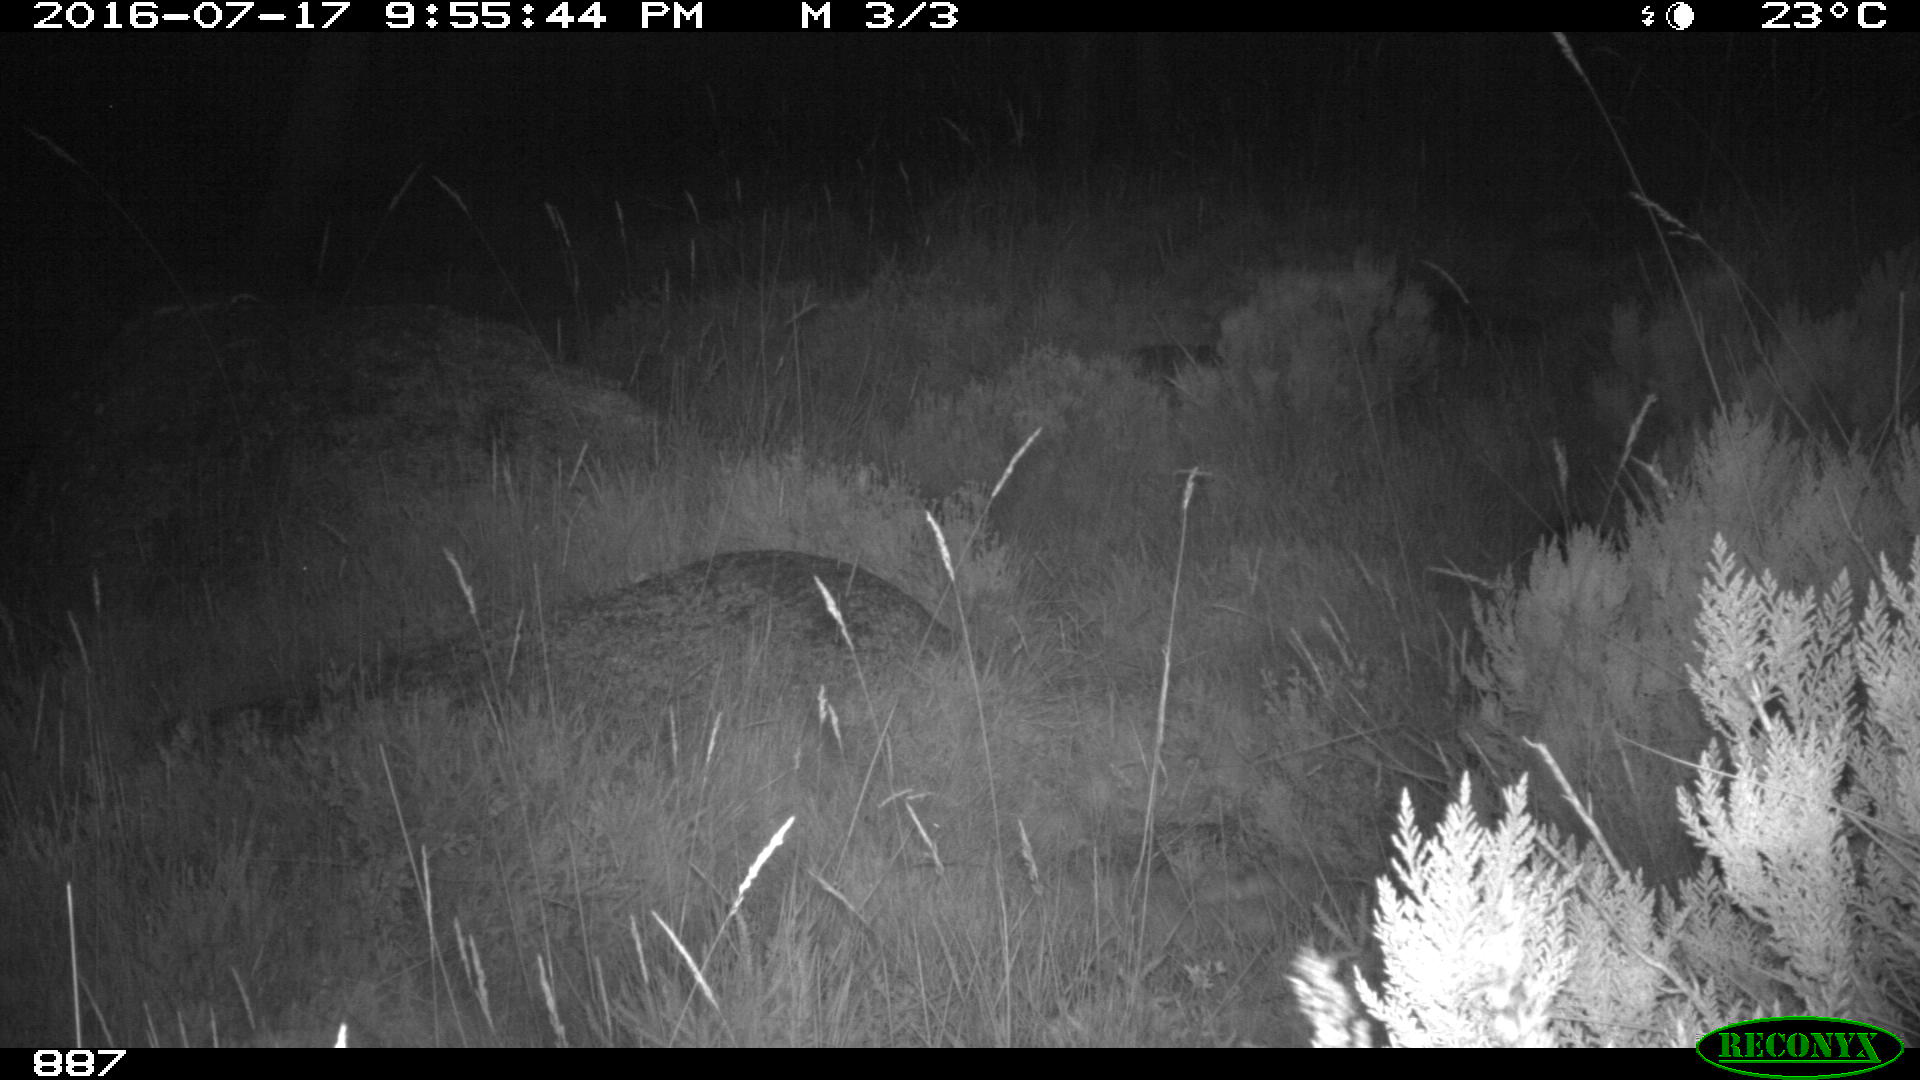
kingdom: Animalia
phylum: Chordata
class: Mammalia
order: Artiodactyla
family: Suidae
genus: Sus
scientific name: Sus scrofa
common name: Wild boar
